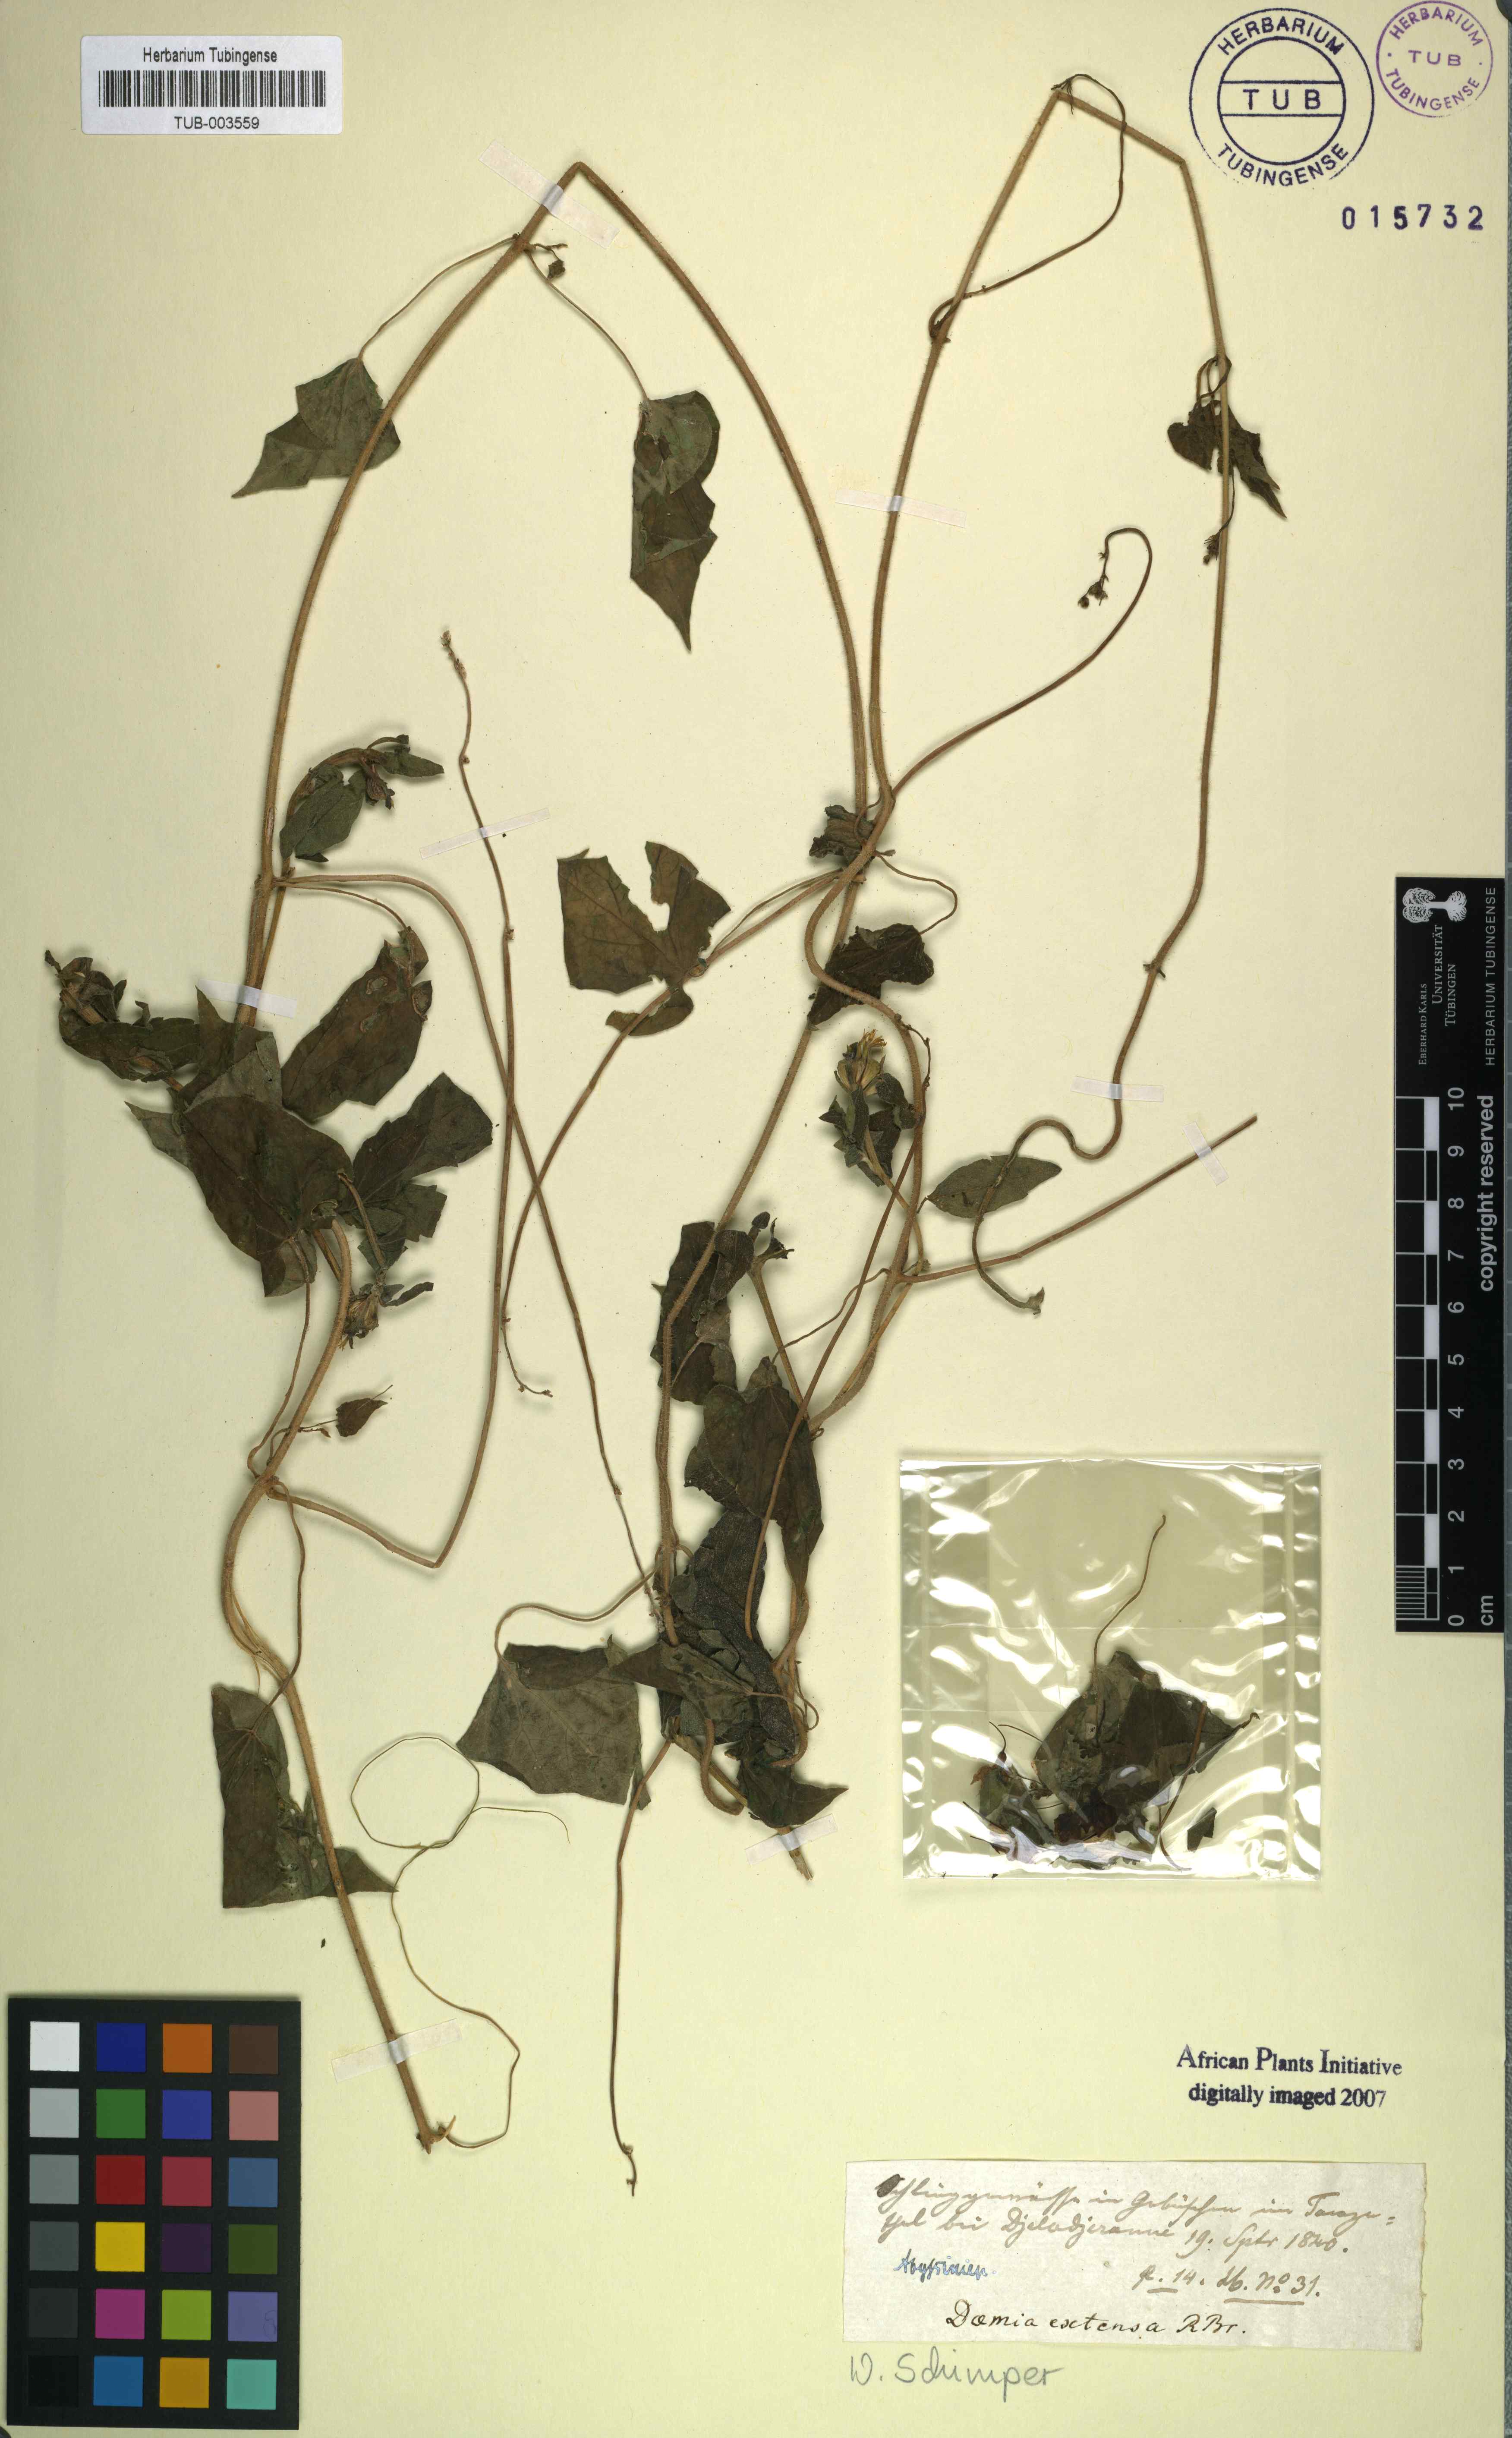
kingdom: Plantae
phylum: Tracheophyta
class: Magnoliopsida
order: Gentianales
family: Apocynaceae
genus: Pergularia
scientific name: Pergularia daemia
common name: Trellis-vine
